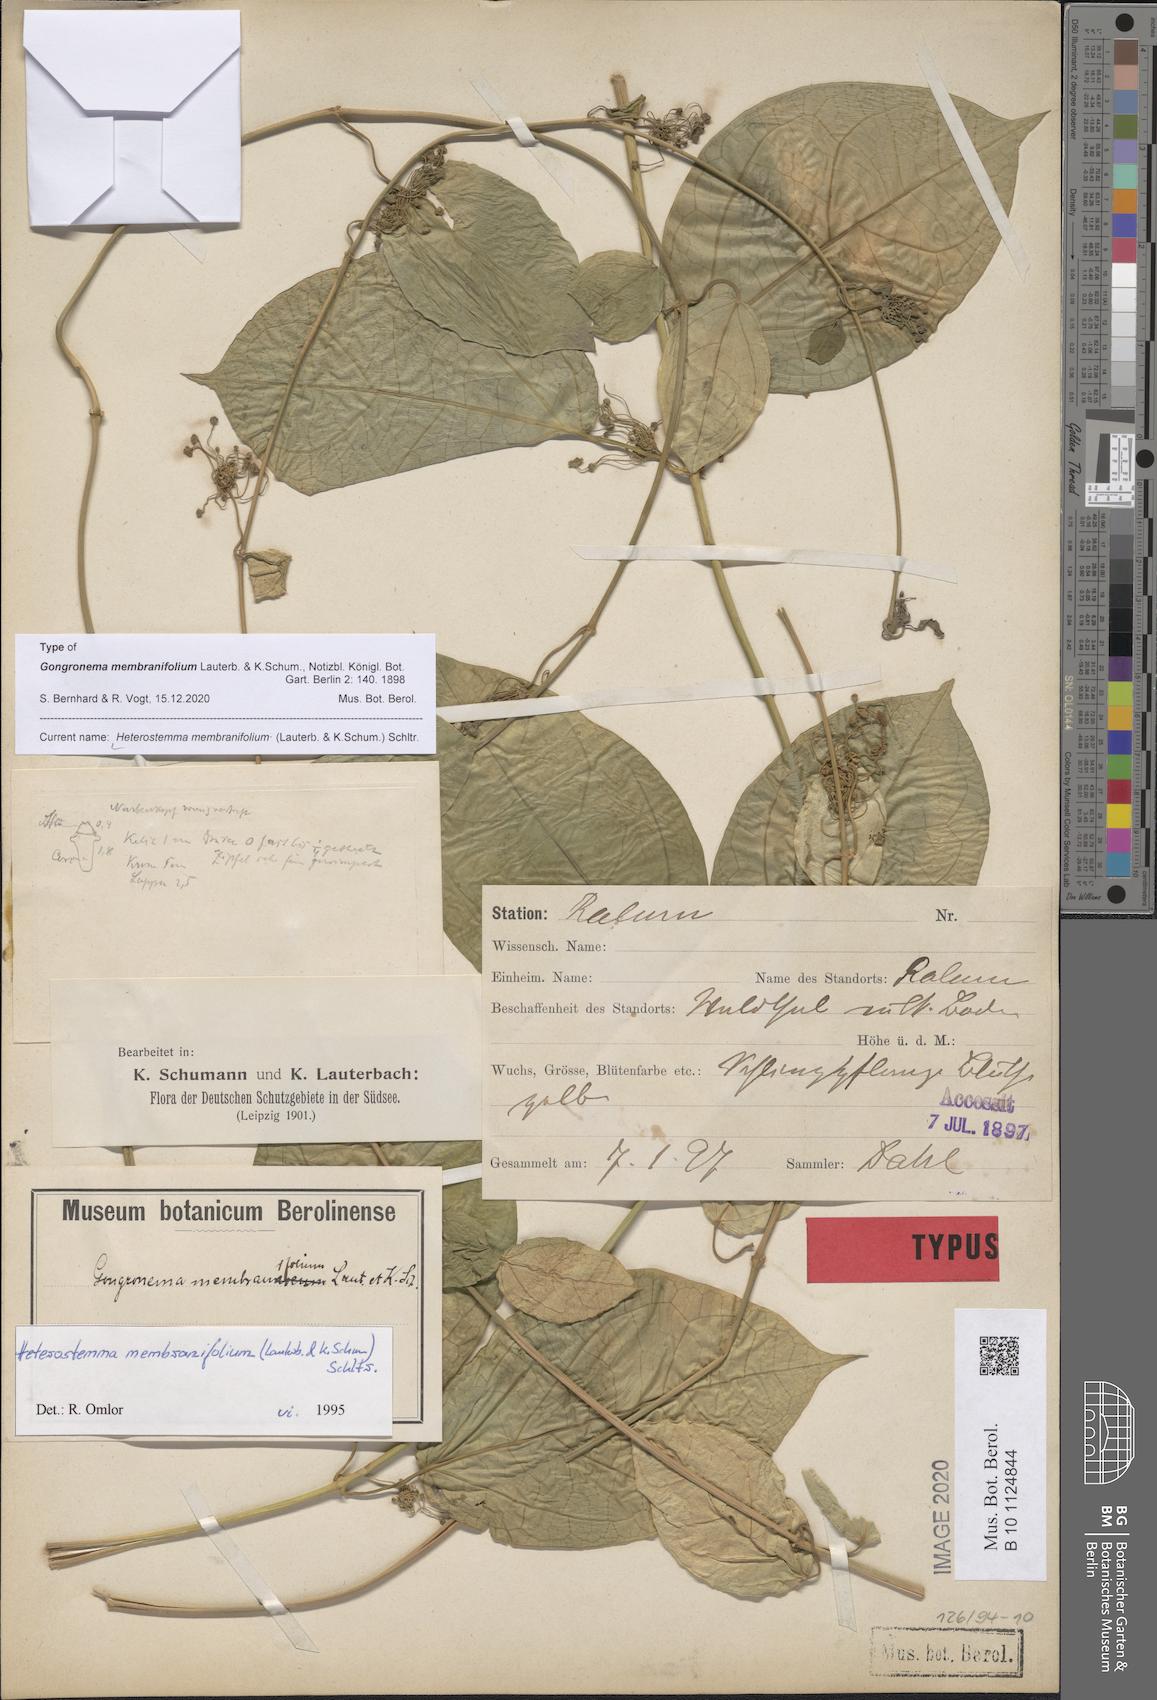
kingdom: Plantae
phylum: Tracheophyta
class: Magnoliopsida
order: Gentianales
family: Apocynaceae
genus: Heterostemma
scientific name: Heterostemma membranifolium
